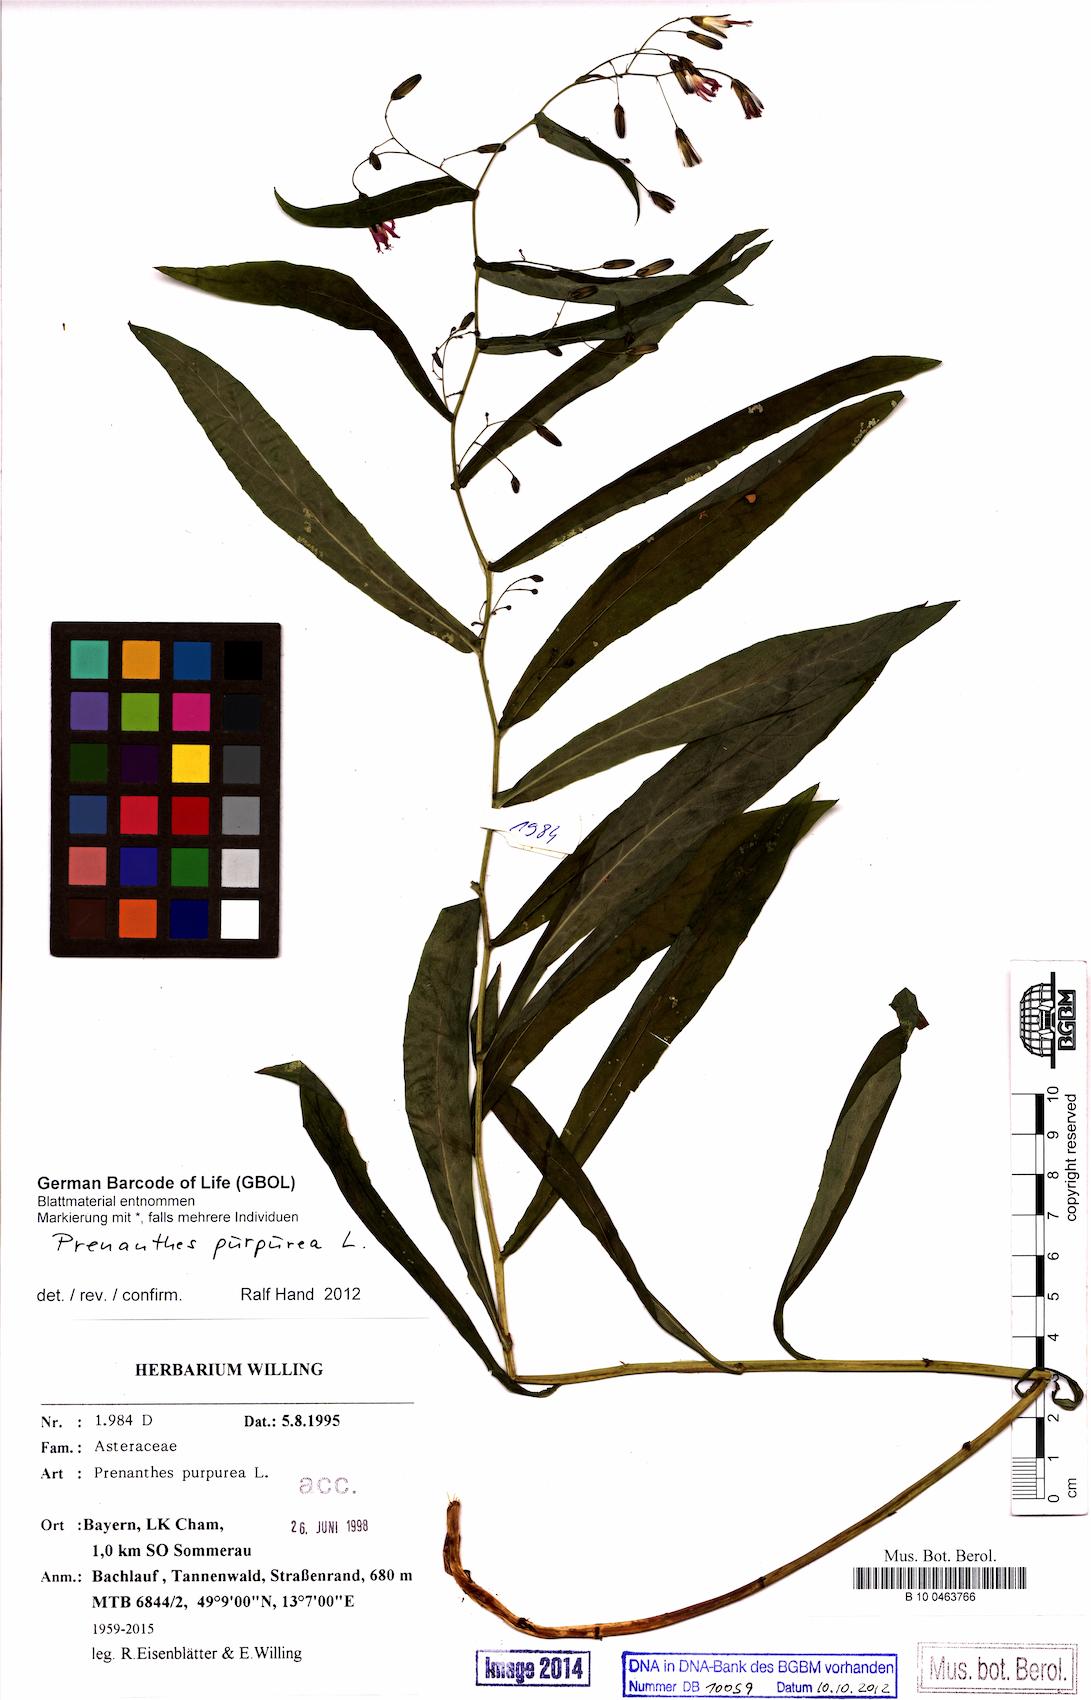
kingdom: Plantae
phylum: Tracheophyta
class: Magnoliopsida
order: Asterales
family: Asteraceae
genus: Prenanthes
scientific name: Prenanthes purpurea
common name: Purple lettuce
